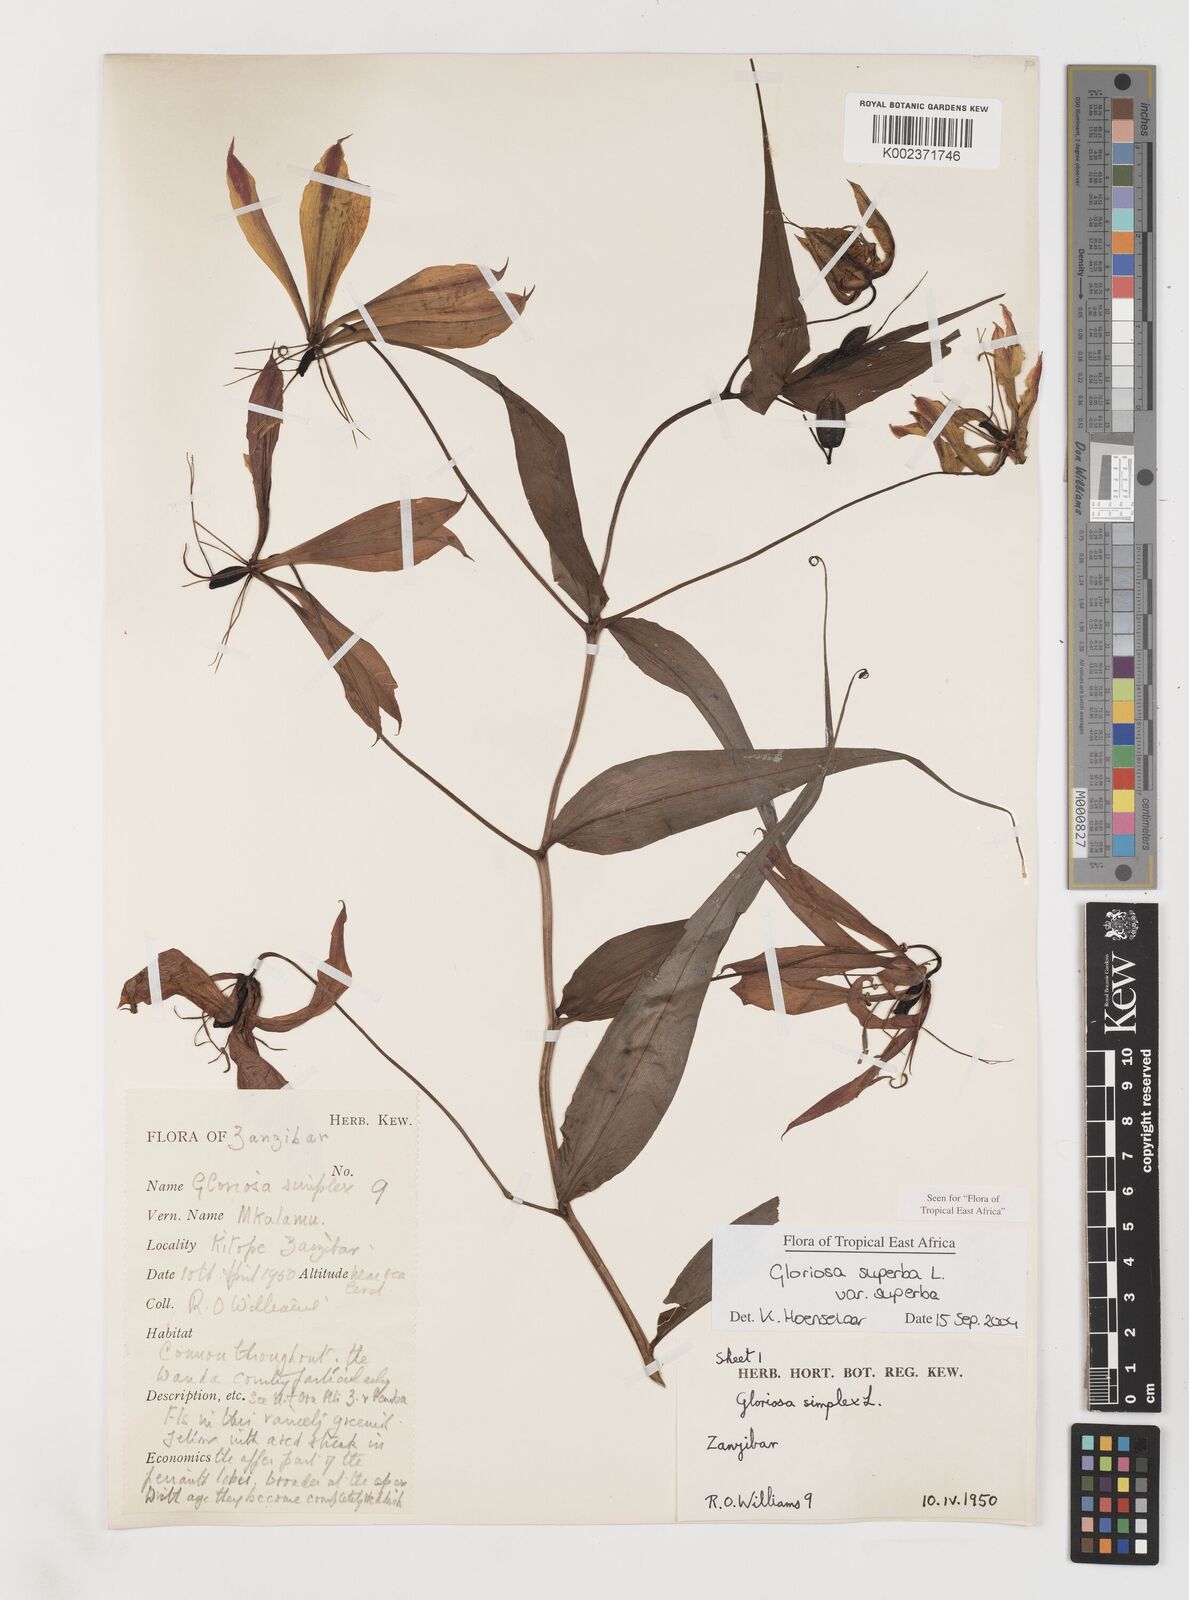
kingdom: Plantae
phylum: Tracheophyta
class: Liliopsida
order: Liliales
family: Colchicaceae
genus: Gloriosa
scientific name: Gloriosa simplex
